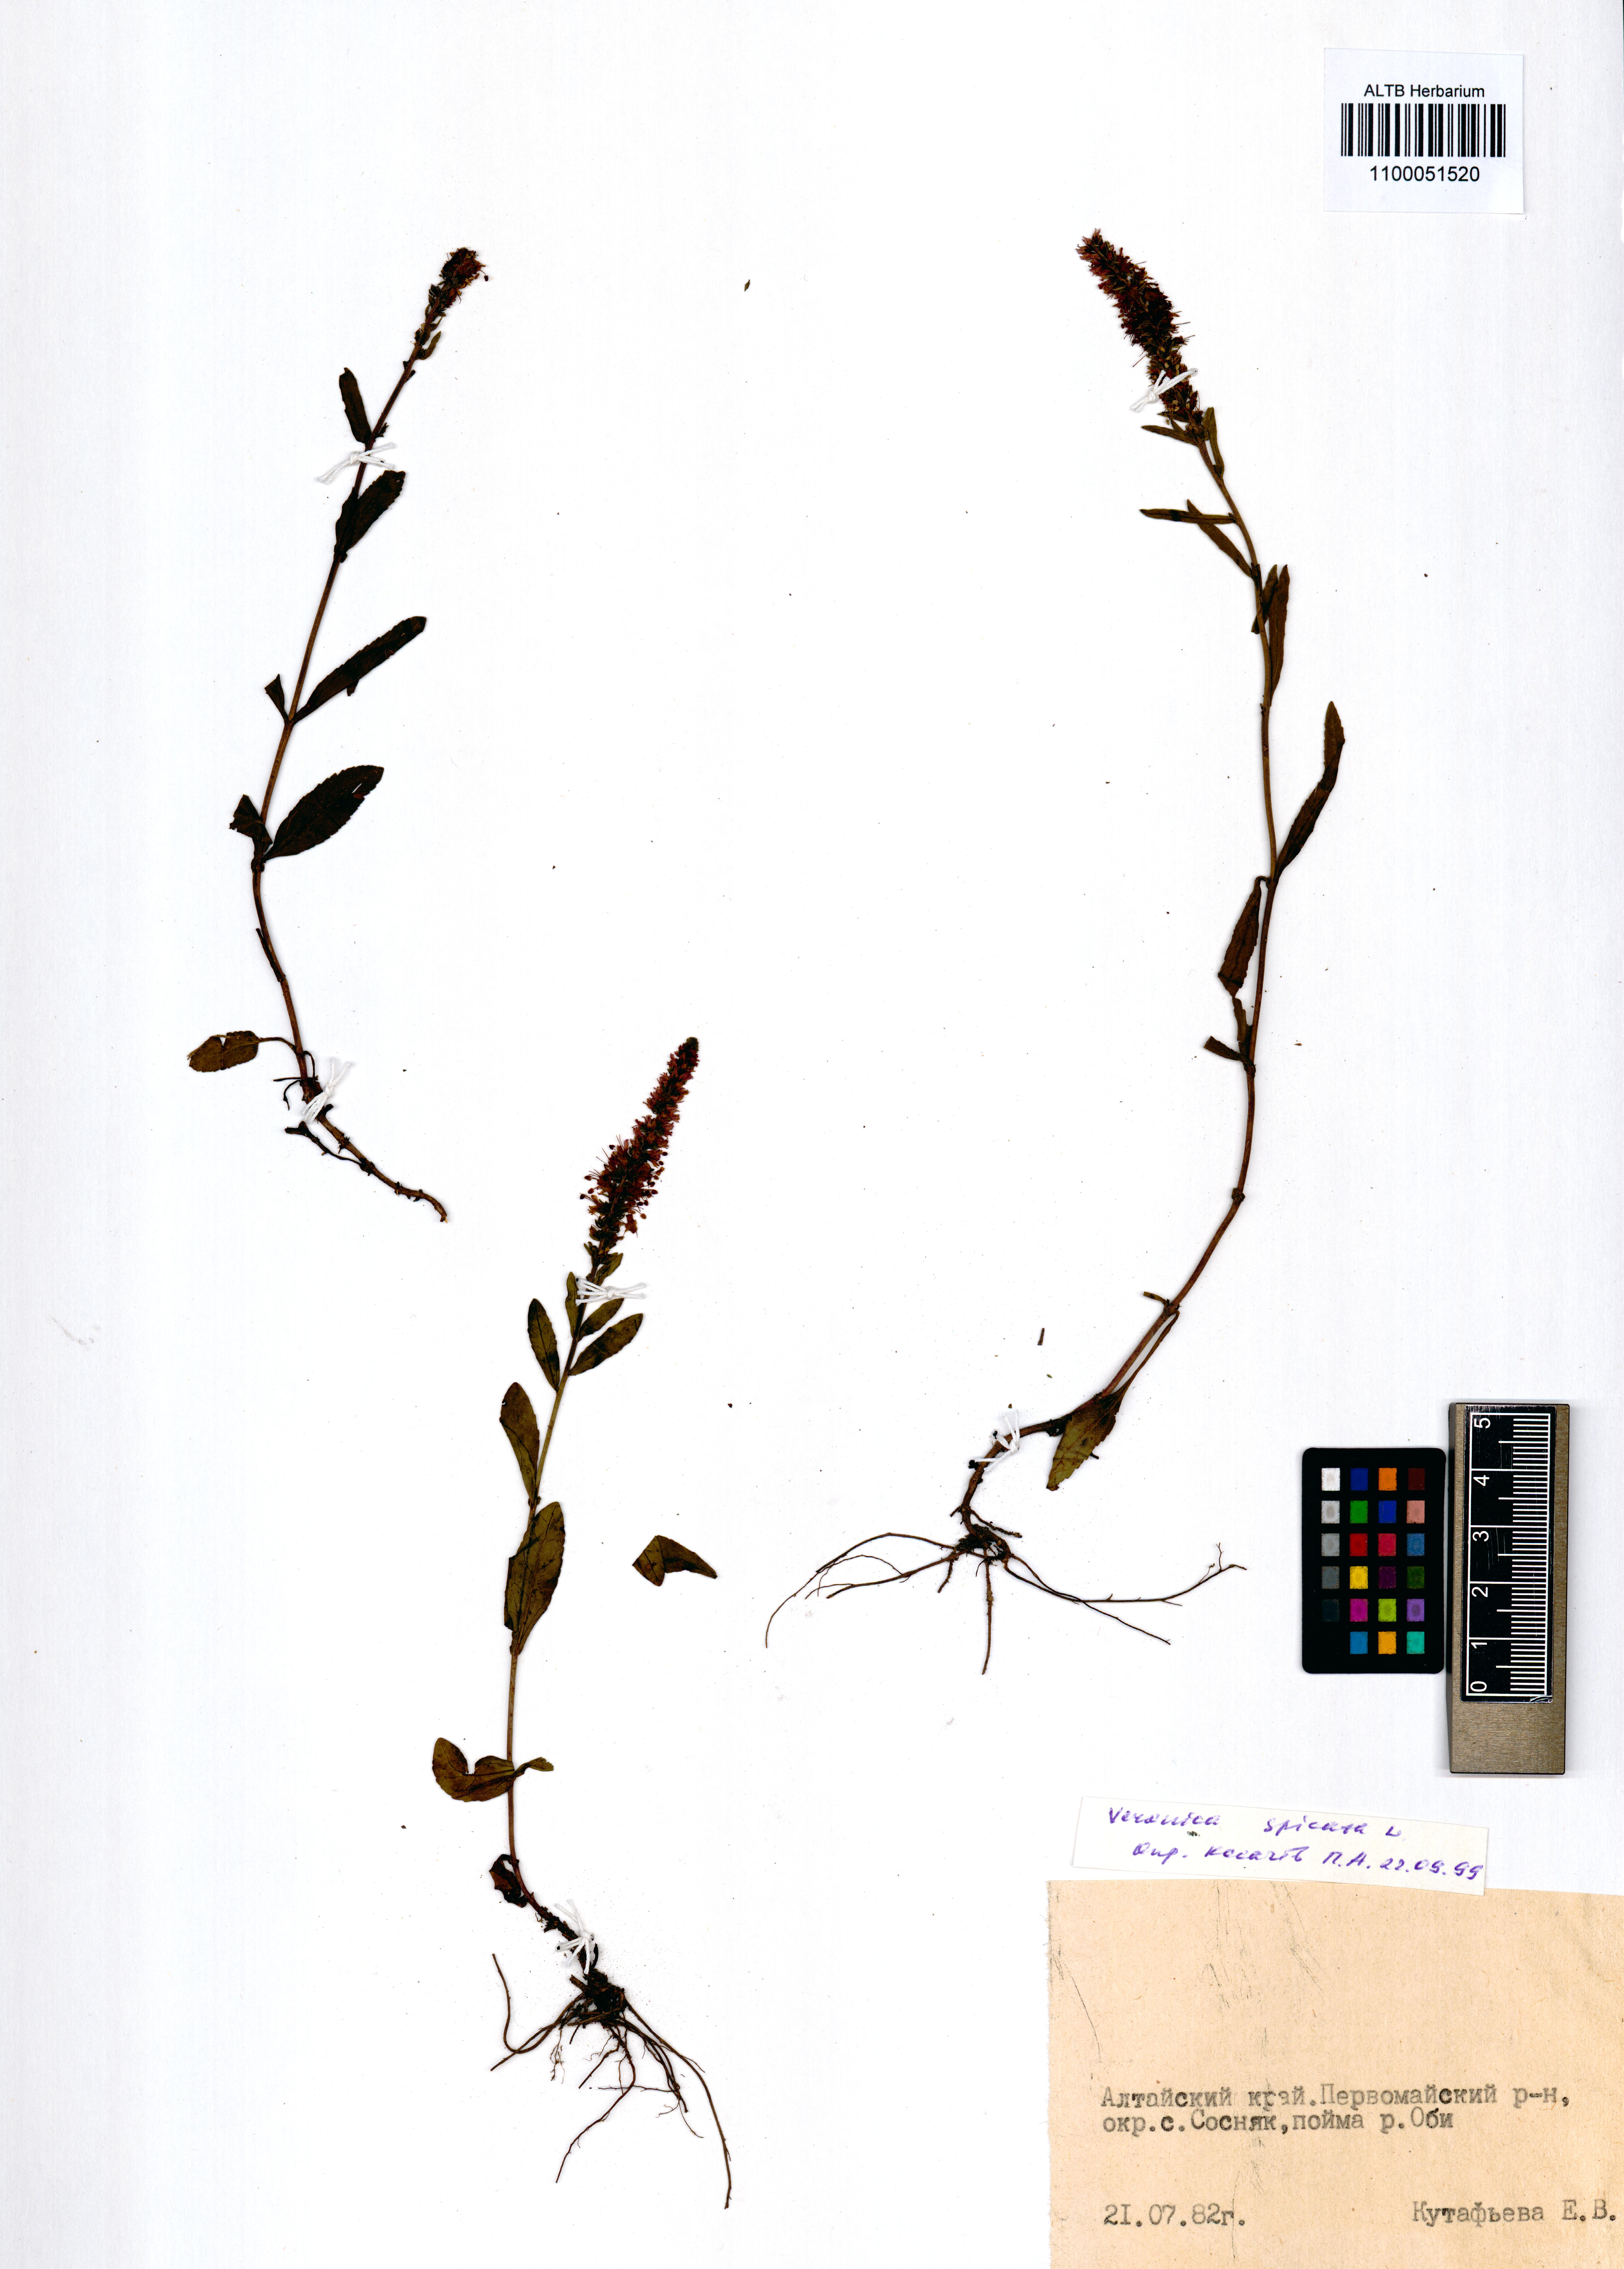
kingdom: Plantae
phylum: Tracheophyta
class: Magnoliopsida
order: Lamiales
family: Plantaginaceae
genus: Veronica
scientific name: Veronica spicata
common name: Spiked speedwell
